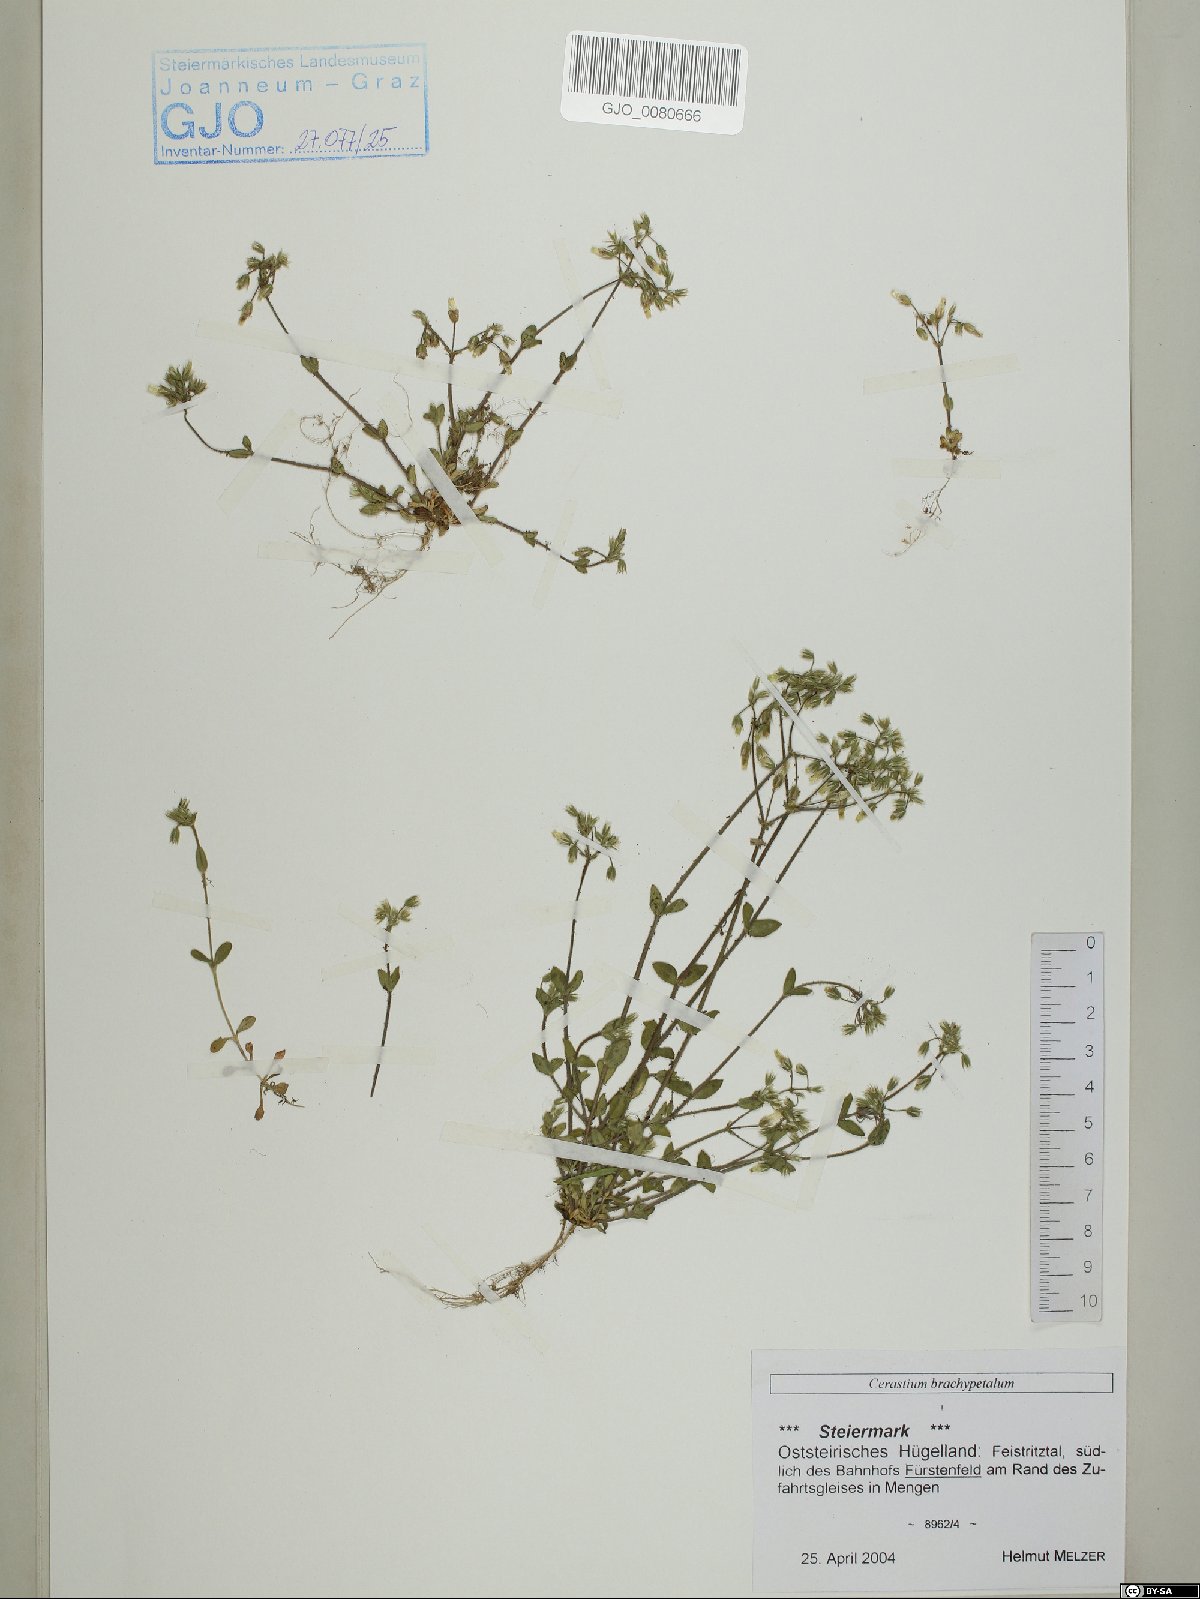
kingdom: Plantae
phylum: Tracheophyta
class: Magnoliopsida
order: Caryophyllales
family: Caryophyllaceae
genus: Cerastium
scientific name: Cerastium brachypetalum
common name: Grey mouse-ear
